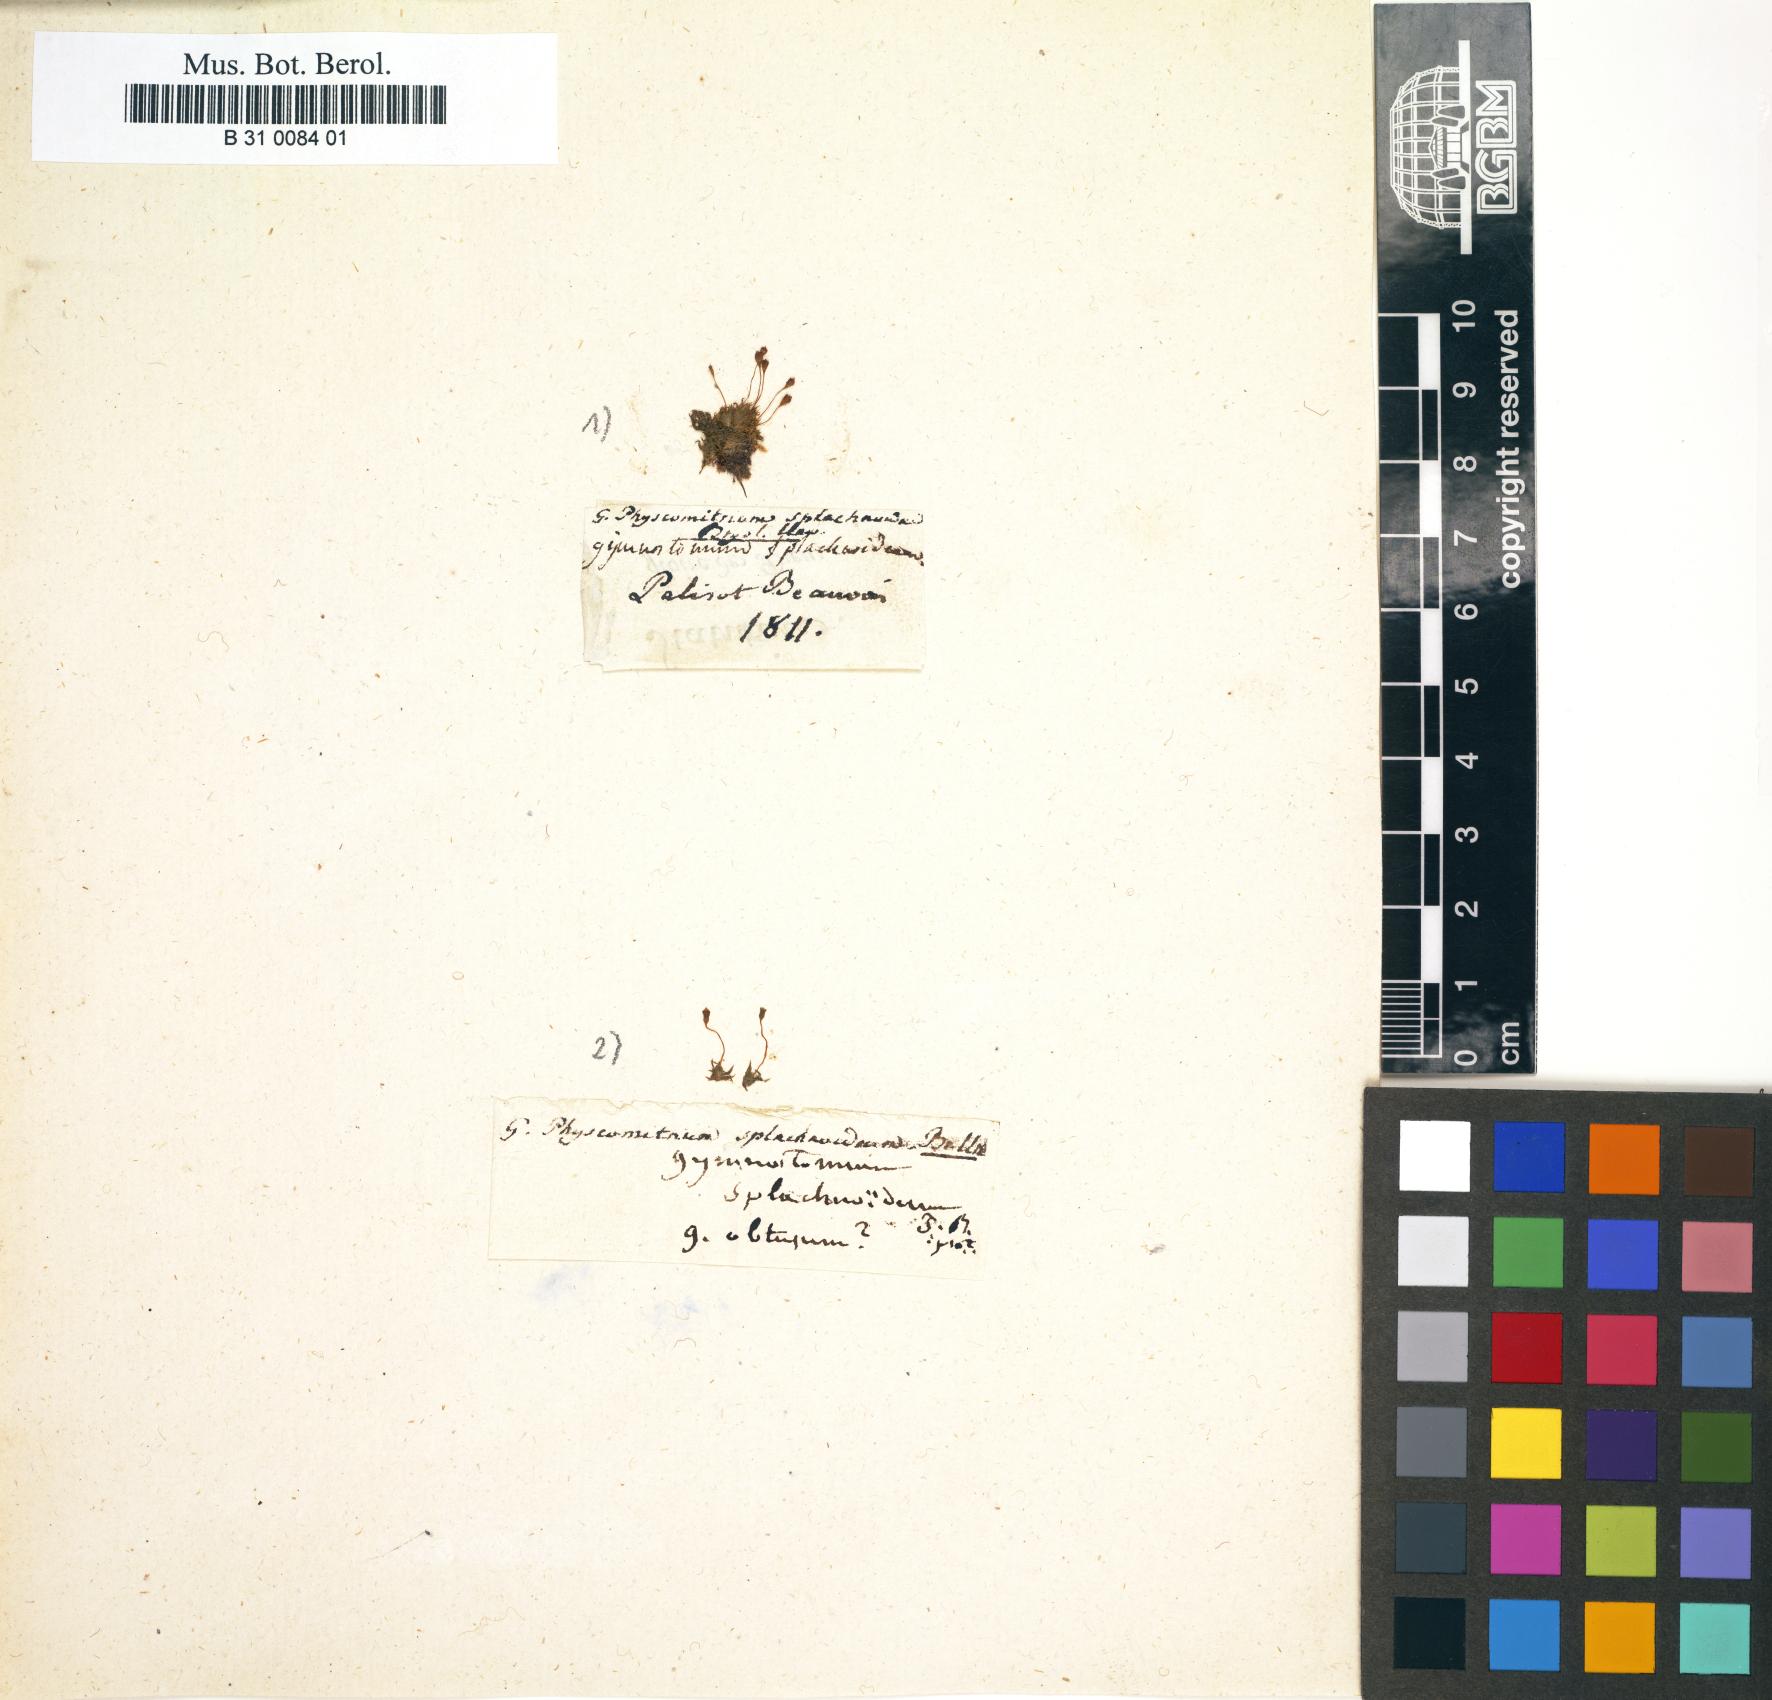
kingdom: Plantae
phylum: Bryophyta
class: Bryopsida
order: Funariales
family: Funariaceae
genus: Physcomitrium
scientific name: Physcomitrium pyriforme
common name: Common bladder-moss
